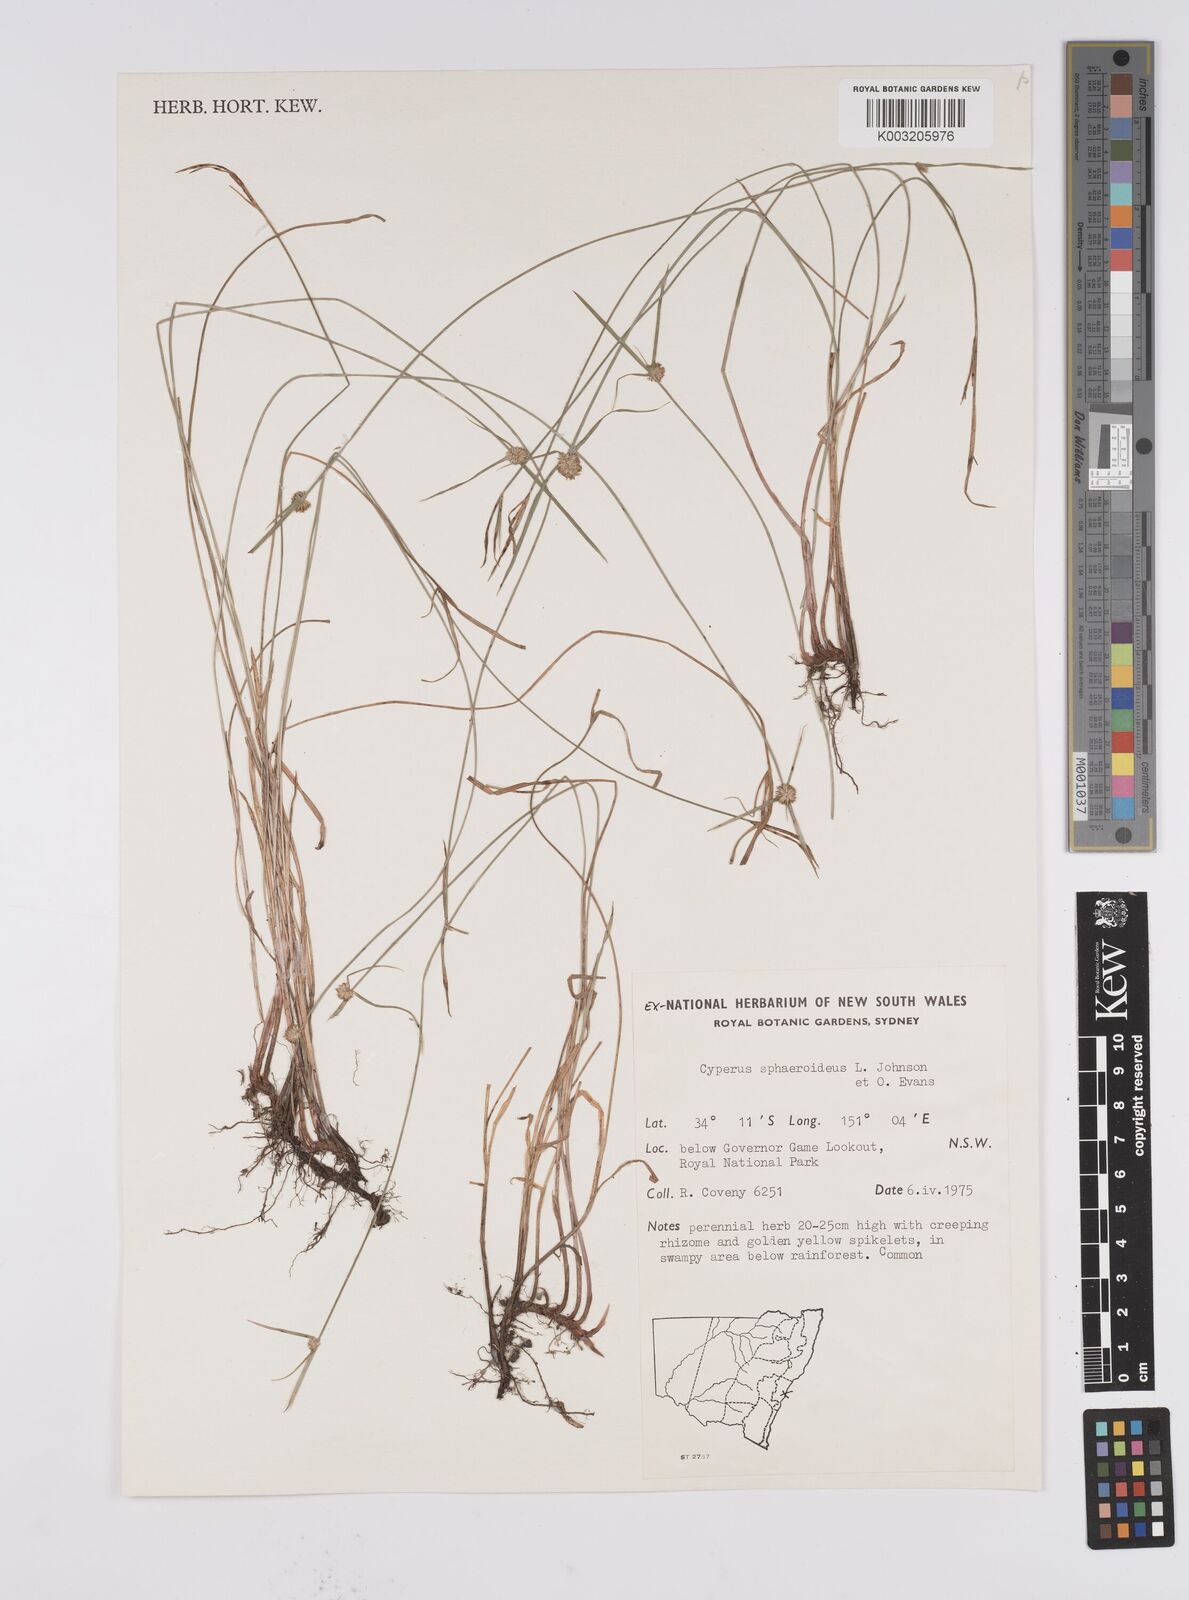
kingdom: Plantae
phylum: Tracheophyta
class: Liliopsida
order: Poales
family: Cyperaceae
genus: Cyperus
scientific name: Cyperus longus
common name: Galingale
